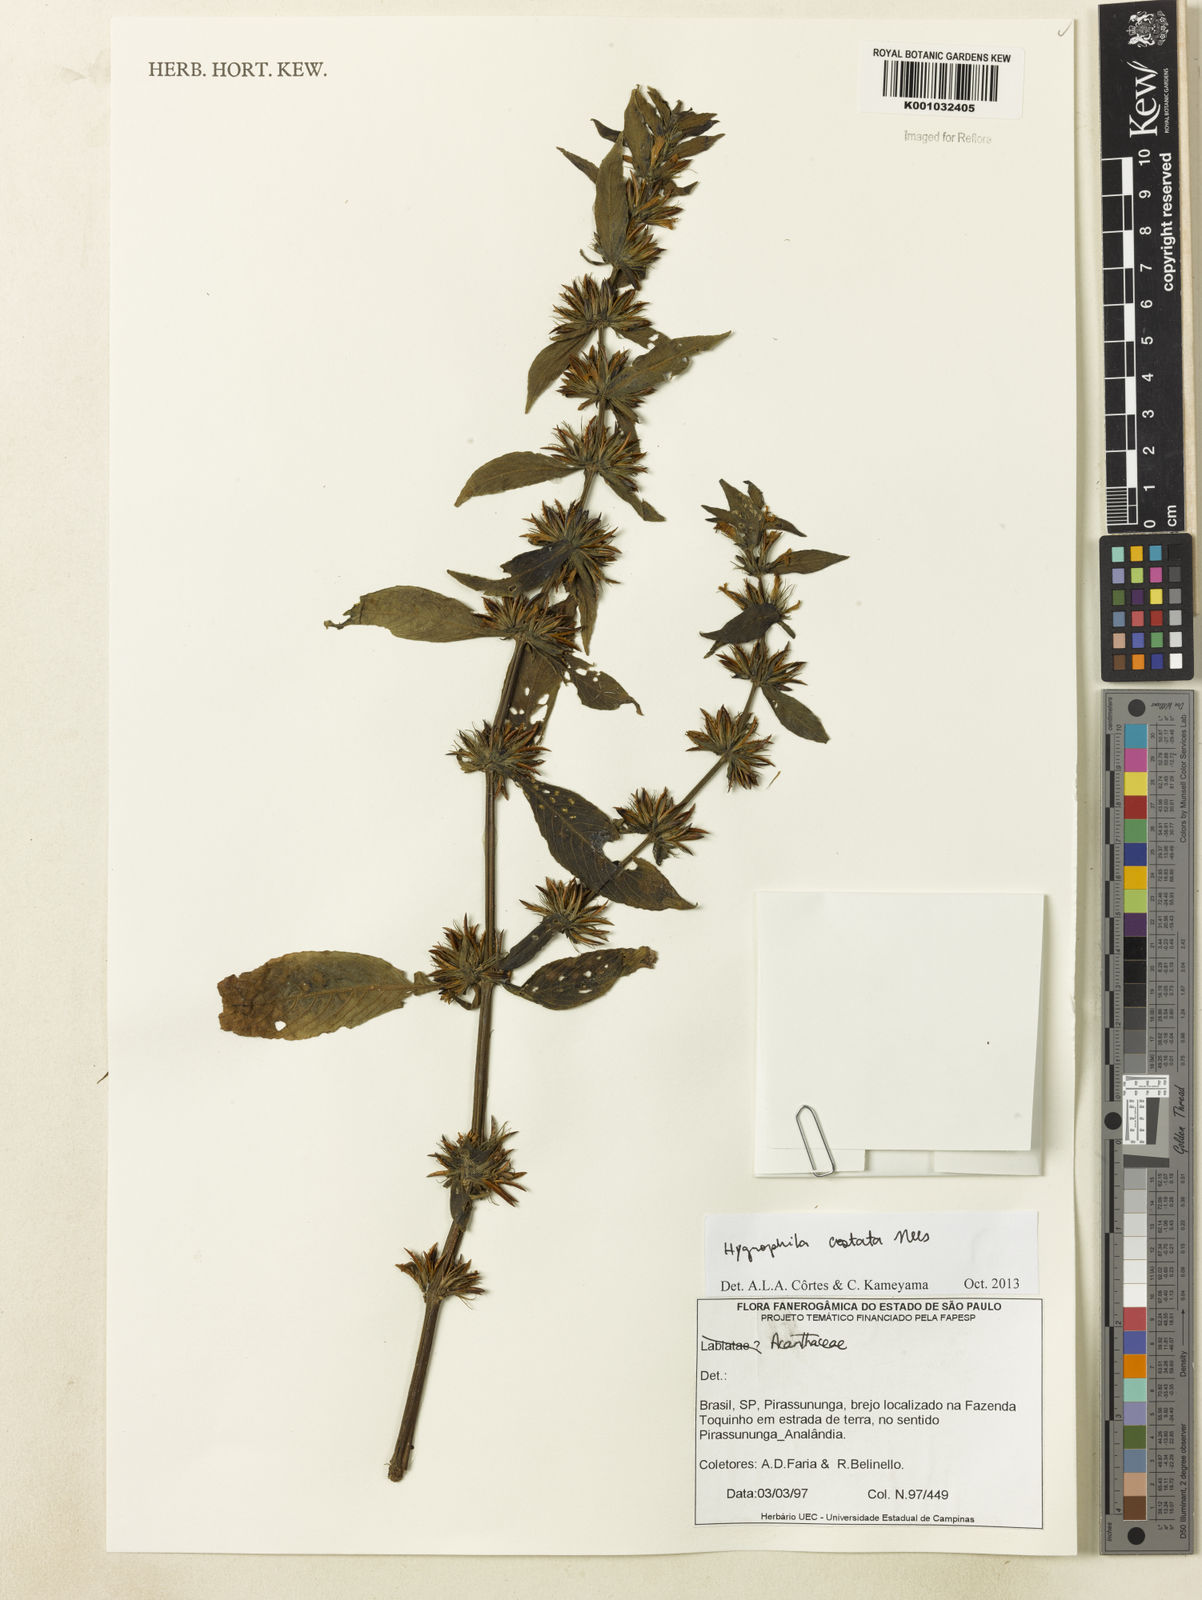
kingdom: Plantae
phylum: Tracheophyta
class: Magnoliopsida
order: Lamiales
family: Acanthaceae
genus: Hygrophila
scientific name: Hygrophila costata
